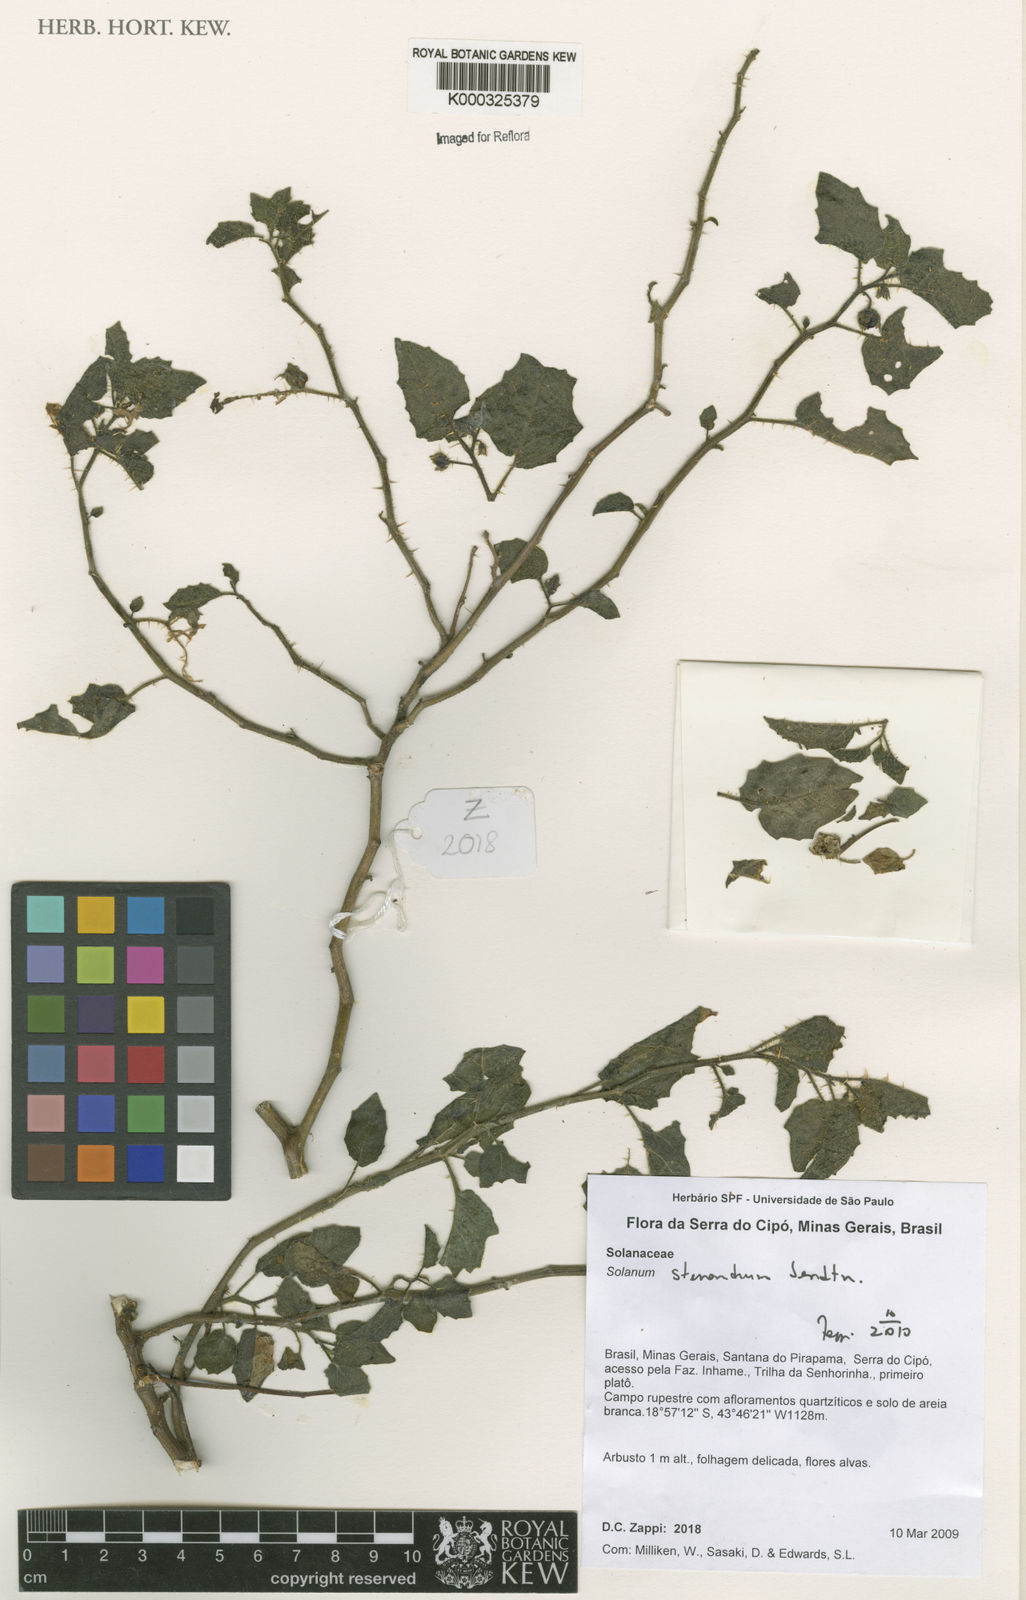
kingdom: Plantae
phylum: Tracheophyta
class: Magnoliopsida
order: Solanales
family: Solanaceae
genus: Solanum
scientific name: Solanum stenandrum
